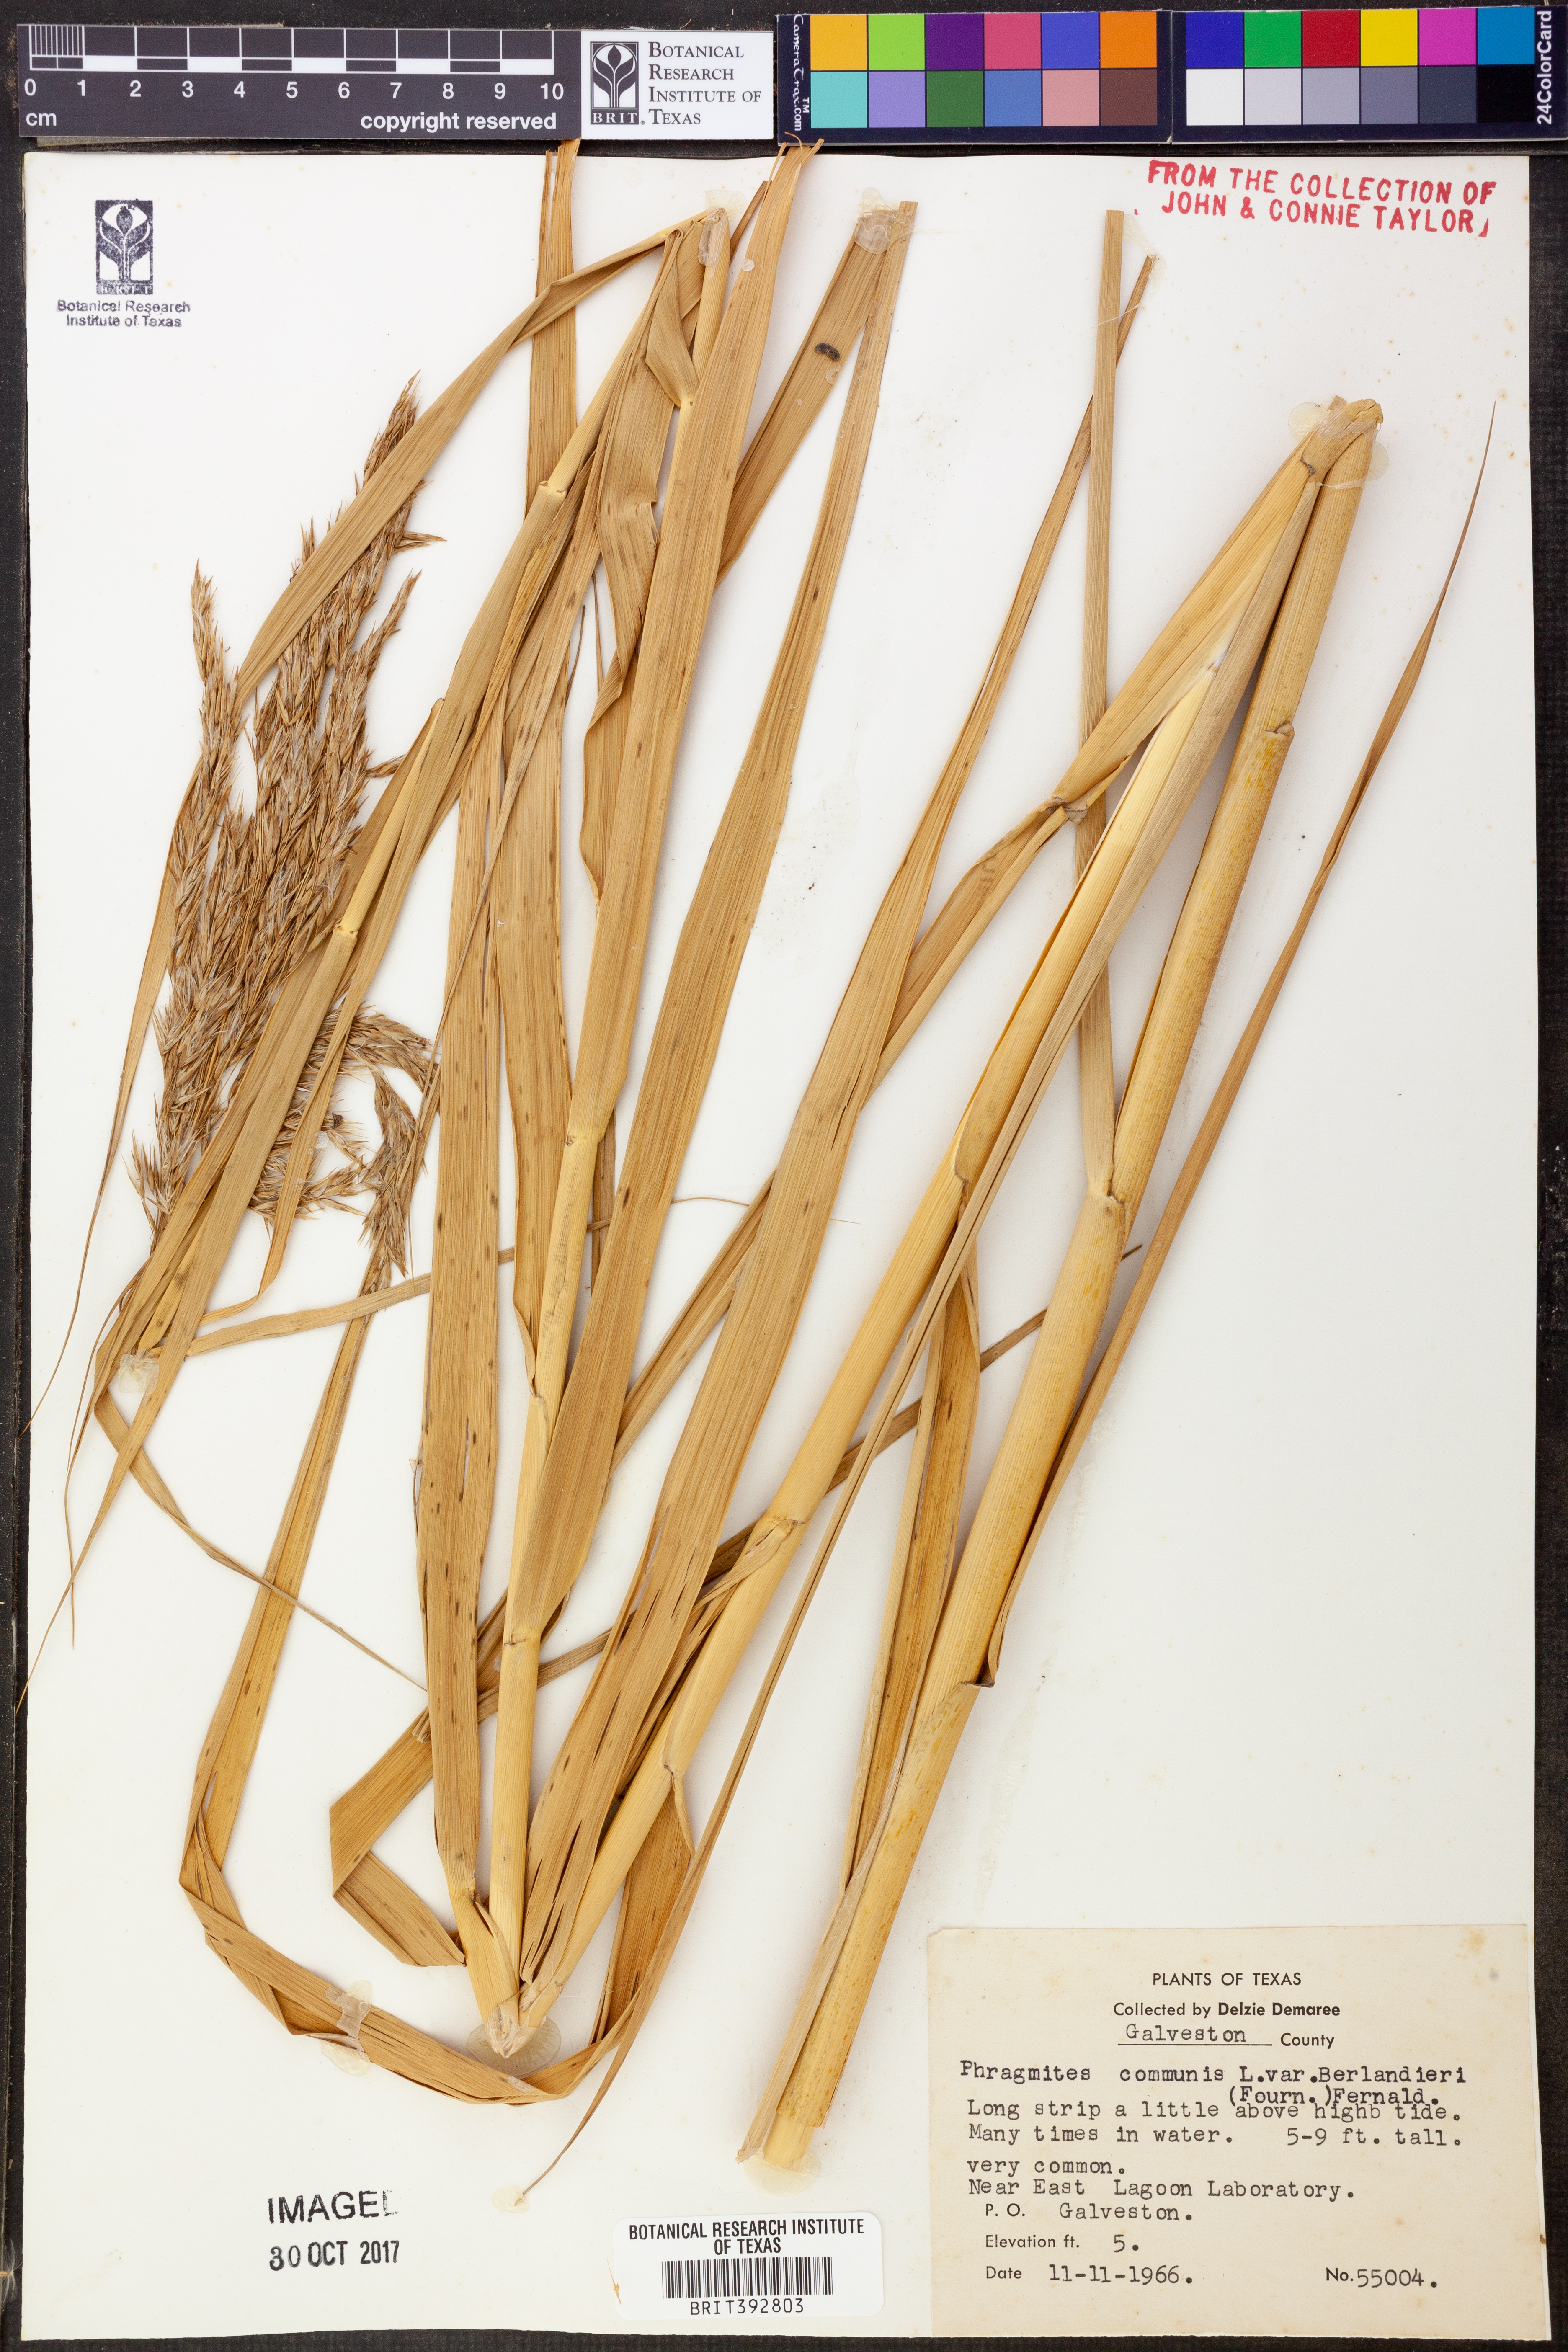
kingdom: Plantae
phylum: Tracheophyta
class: Liliopsida
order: Poales
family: Poaceae
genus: Phragmites
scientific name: Phragmites australis
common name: Common reed
